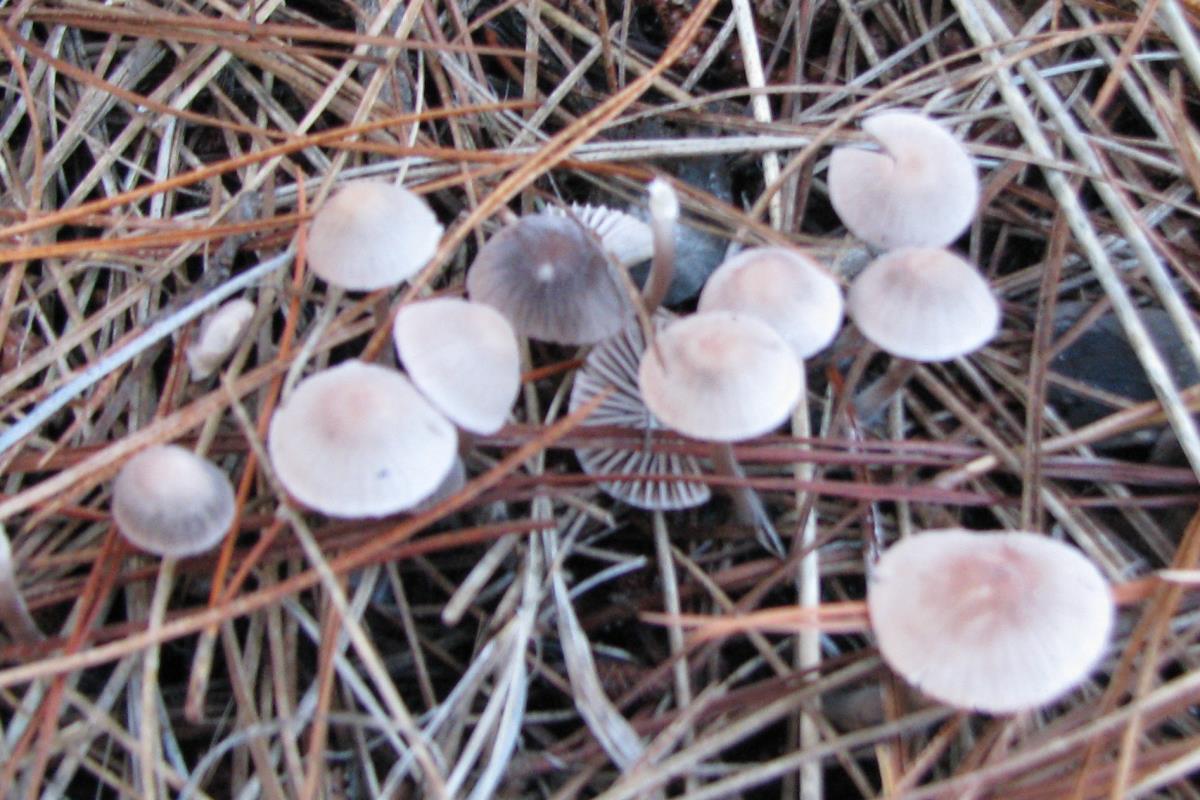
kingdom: Fungi
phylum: Basidiomycota
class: Agaricomycetes
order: Agaricales
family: Mycenaceae
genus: Mycena
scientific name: Mycena capillaripes
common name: Pinkedge bonnet
